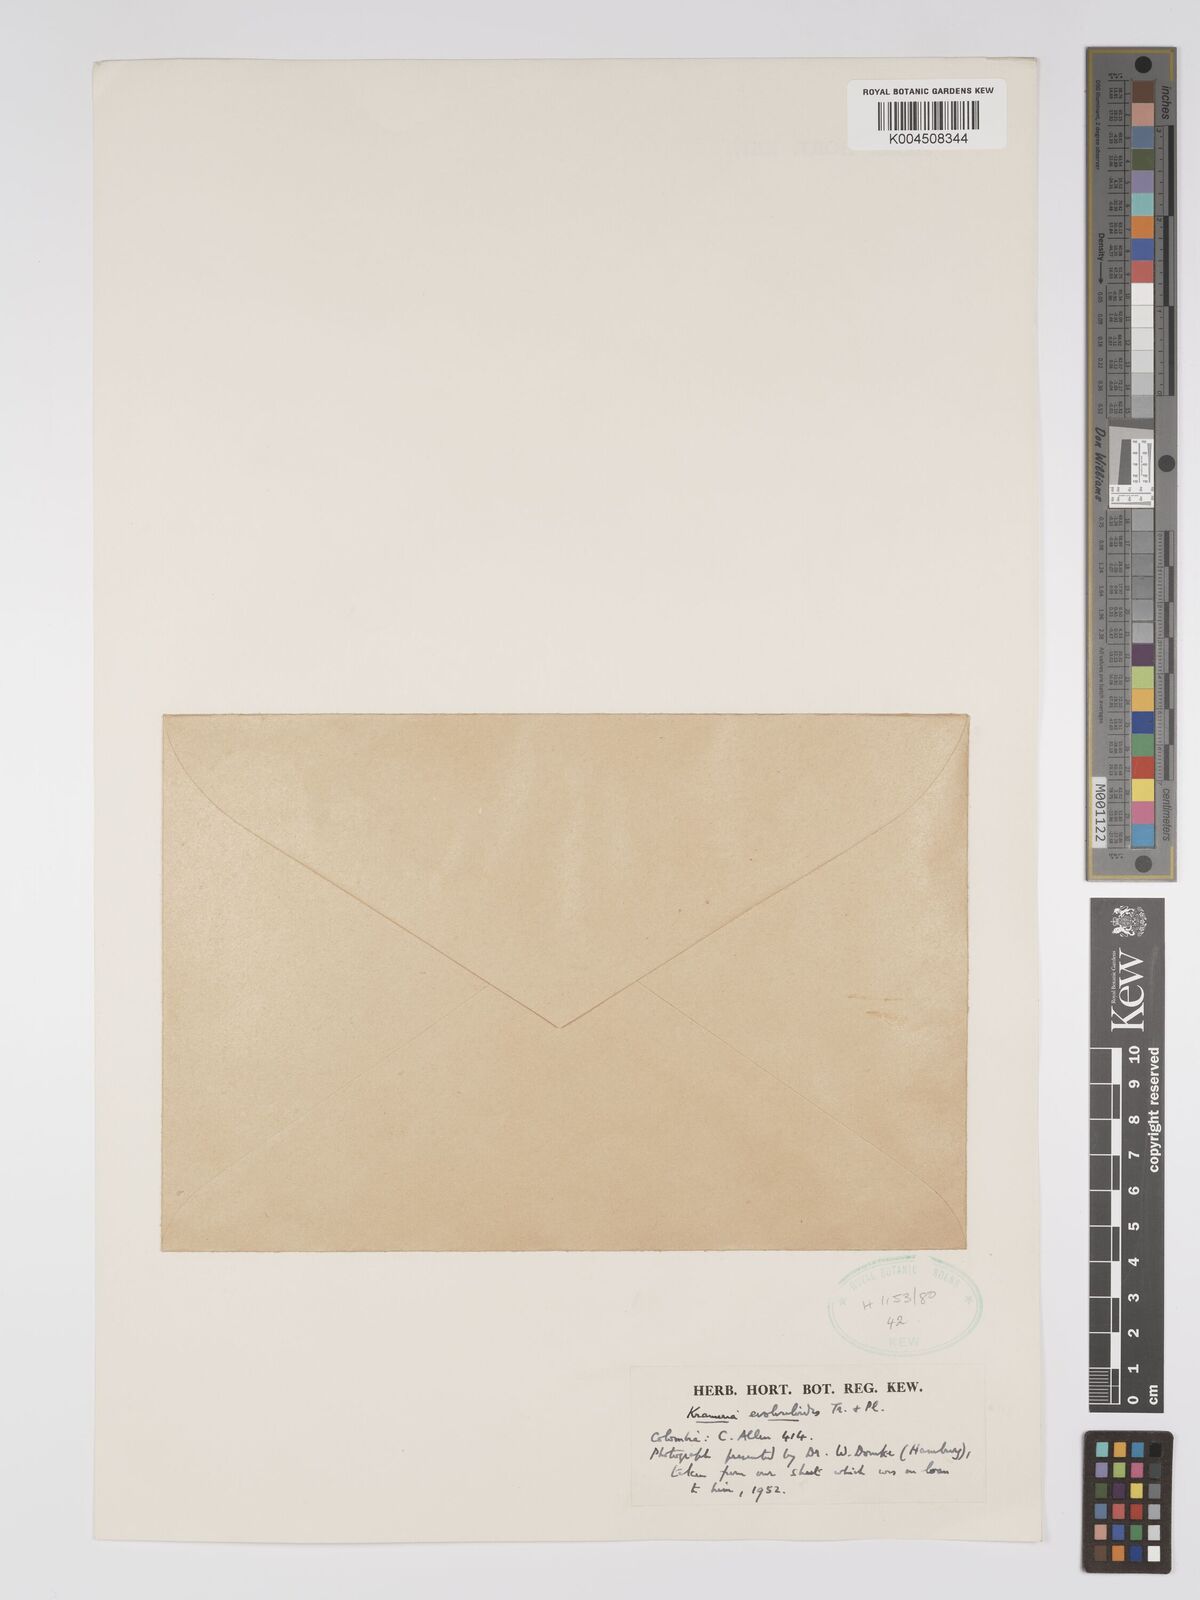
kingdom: Plantae
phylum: Tracheophyta
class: Magnoliopsida
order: Zygophyllales
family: Krameriaceae
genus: Krameria
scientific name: Krameria spartioides
